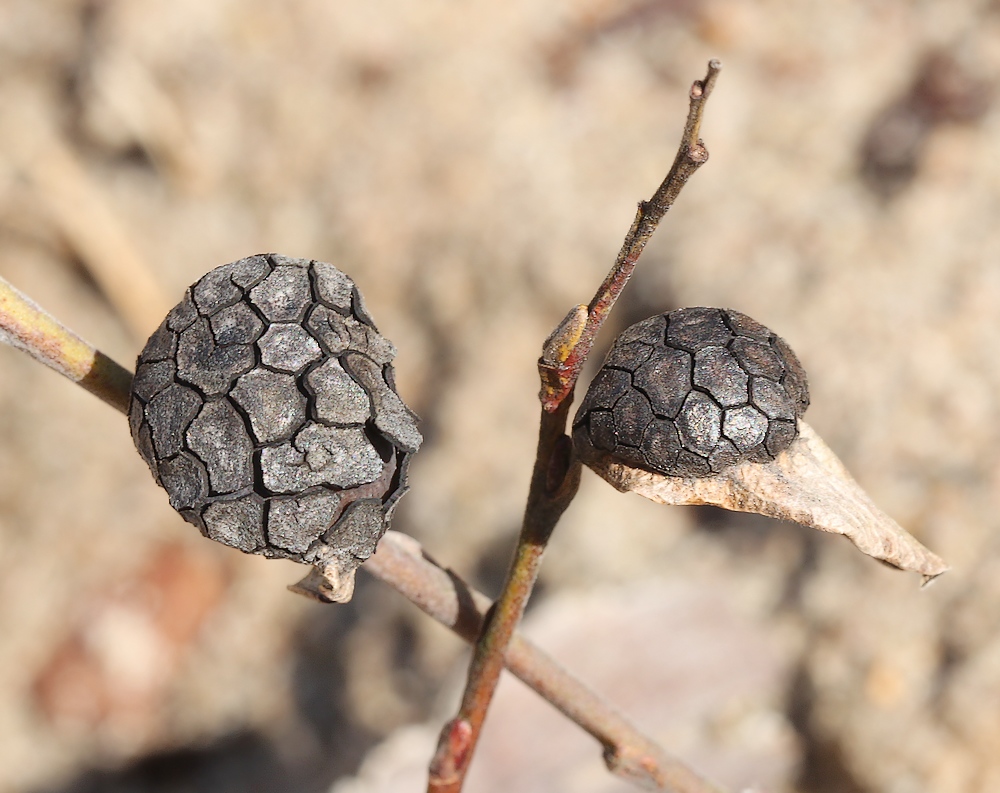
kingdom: Fungi
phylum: Ascomycota
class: Leotiomycetes
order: Rhytismatales
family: Rhytismataceae
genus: Rhytisma
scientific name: Rhytisma salicinum
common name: pile-rynkeplet
